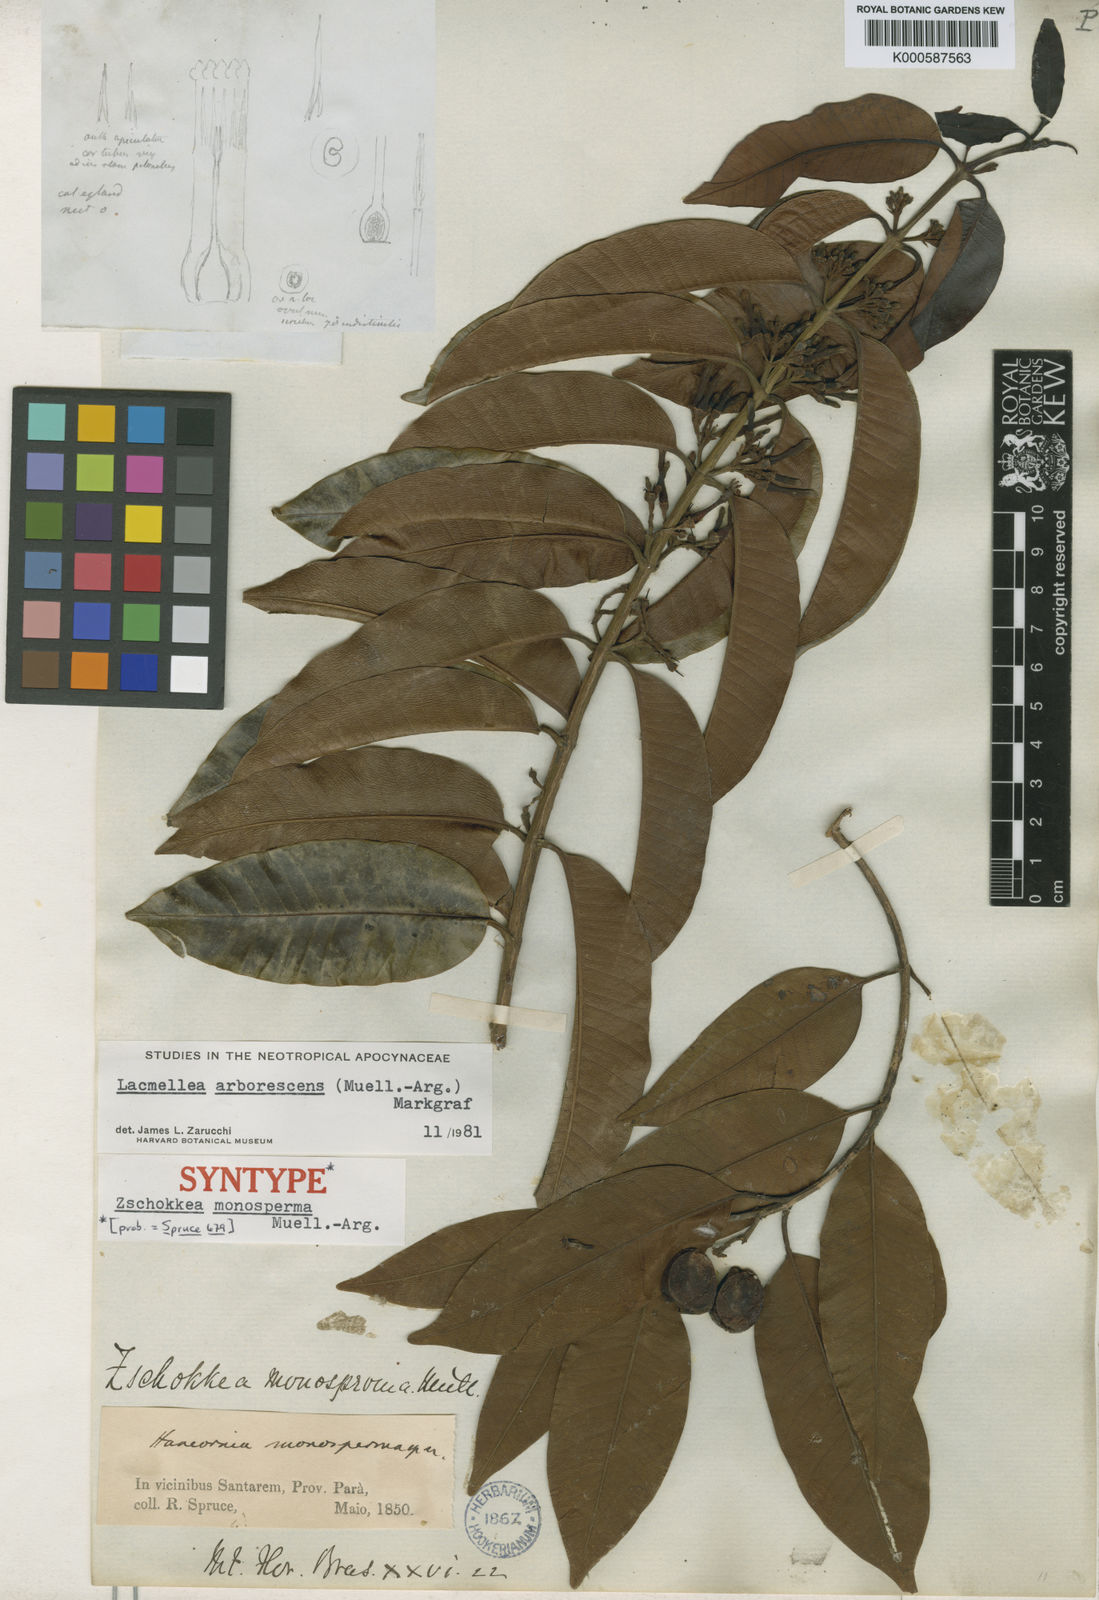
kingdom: Plantae
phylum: Tracheophyta
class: Magnoliopsida
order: Gentianales
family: Apocynaceae
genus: Lacmellea
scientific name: Lacmellea
